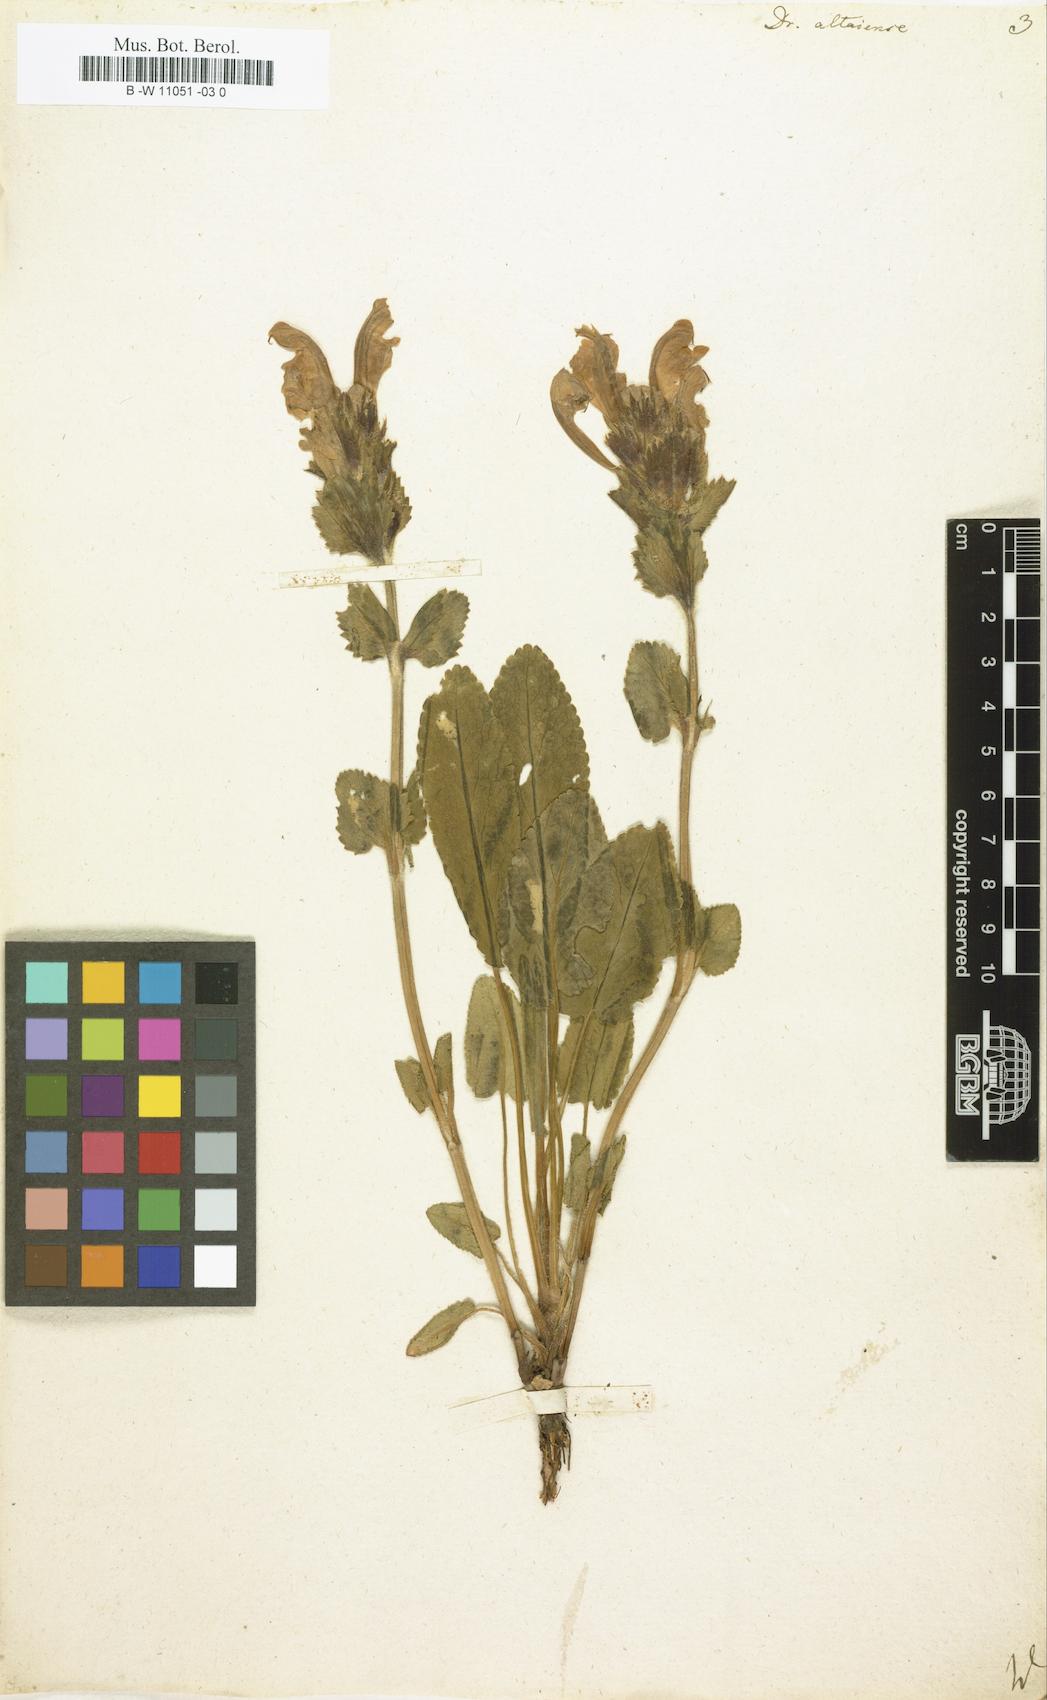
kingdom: Plantae
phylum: Tracheophyta
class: Magnoliopsida
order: Lamiales
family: Lamiaceae
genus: Dracocephalum
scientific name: Dracocephalum
